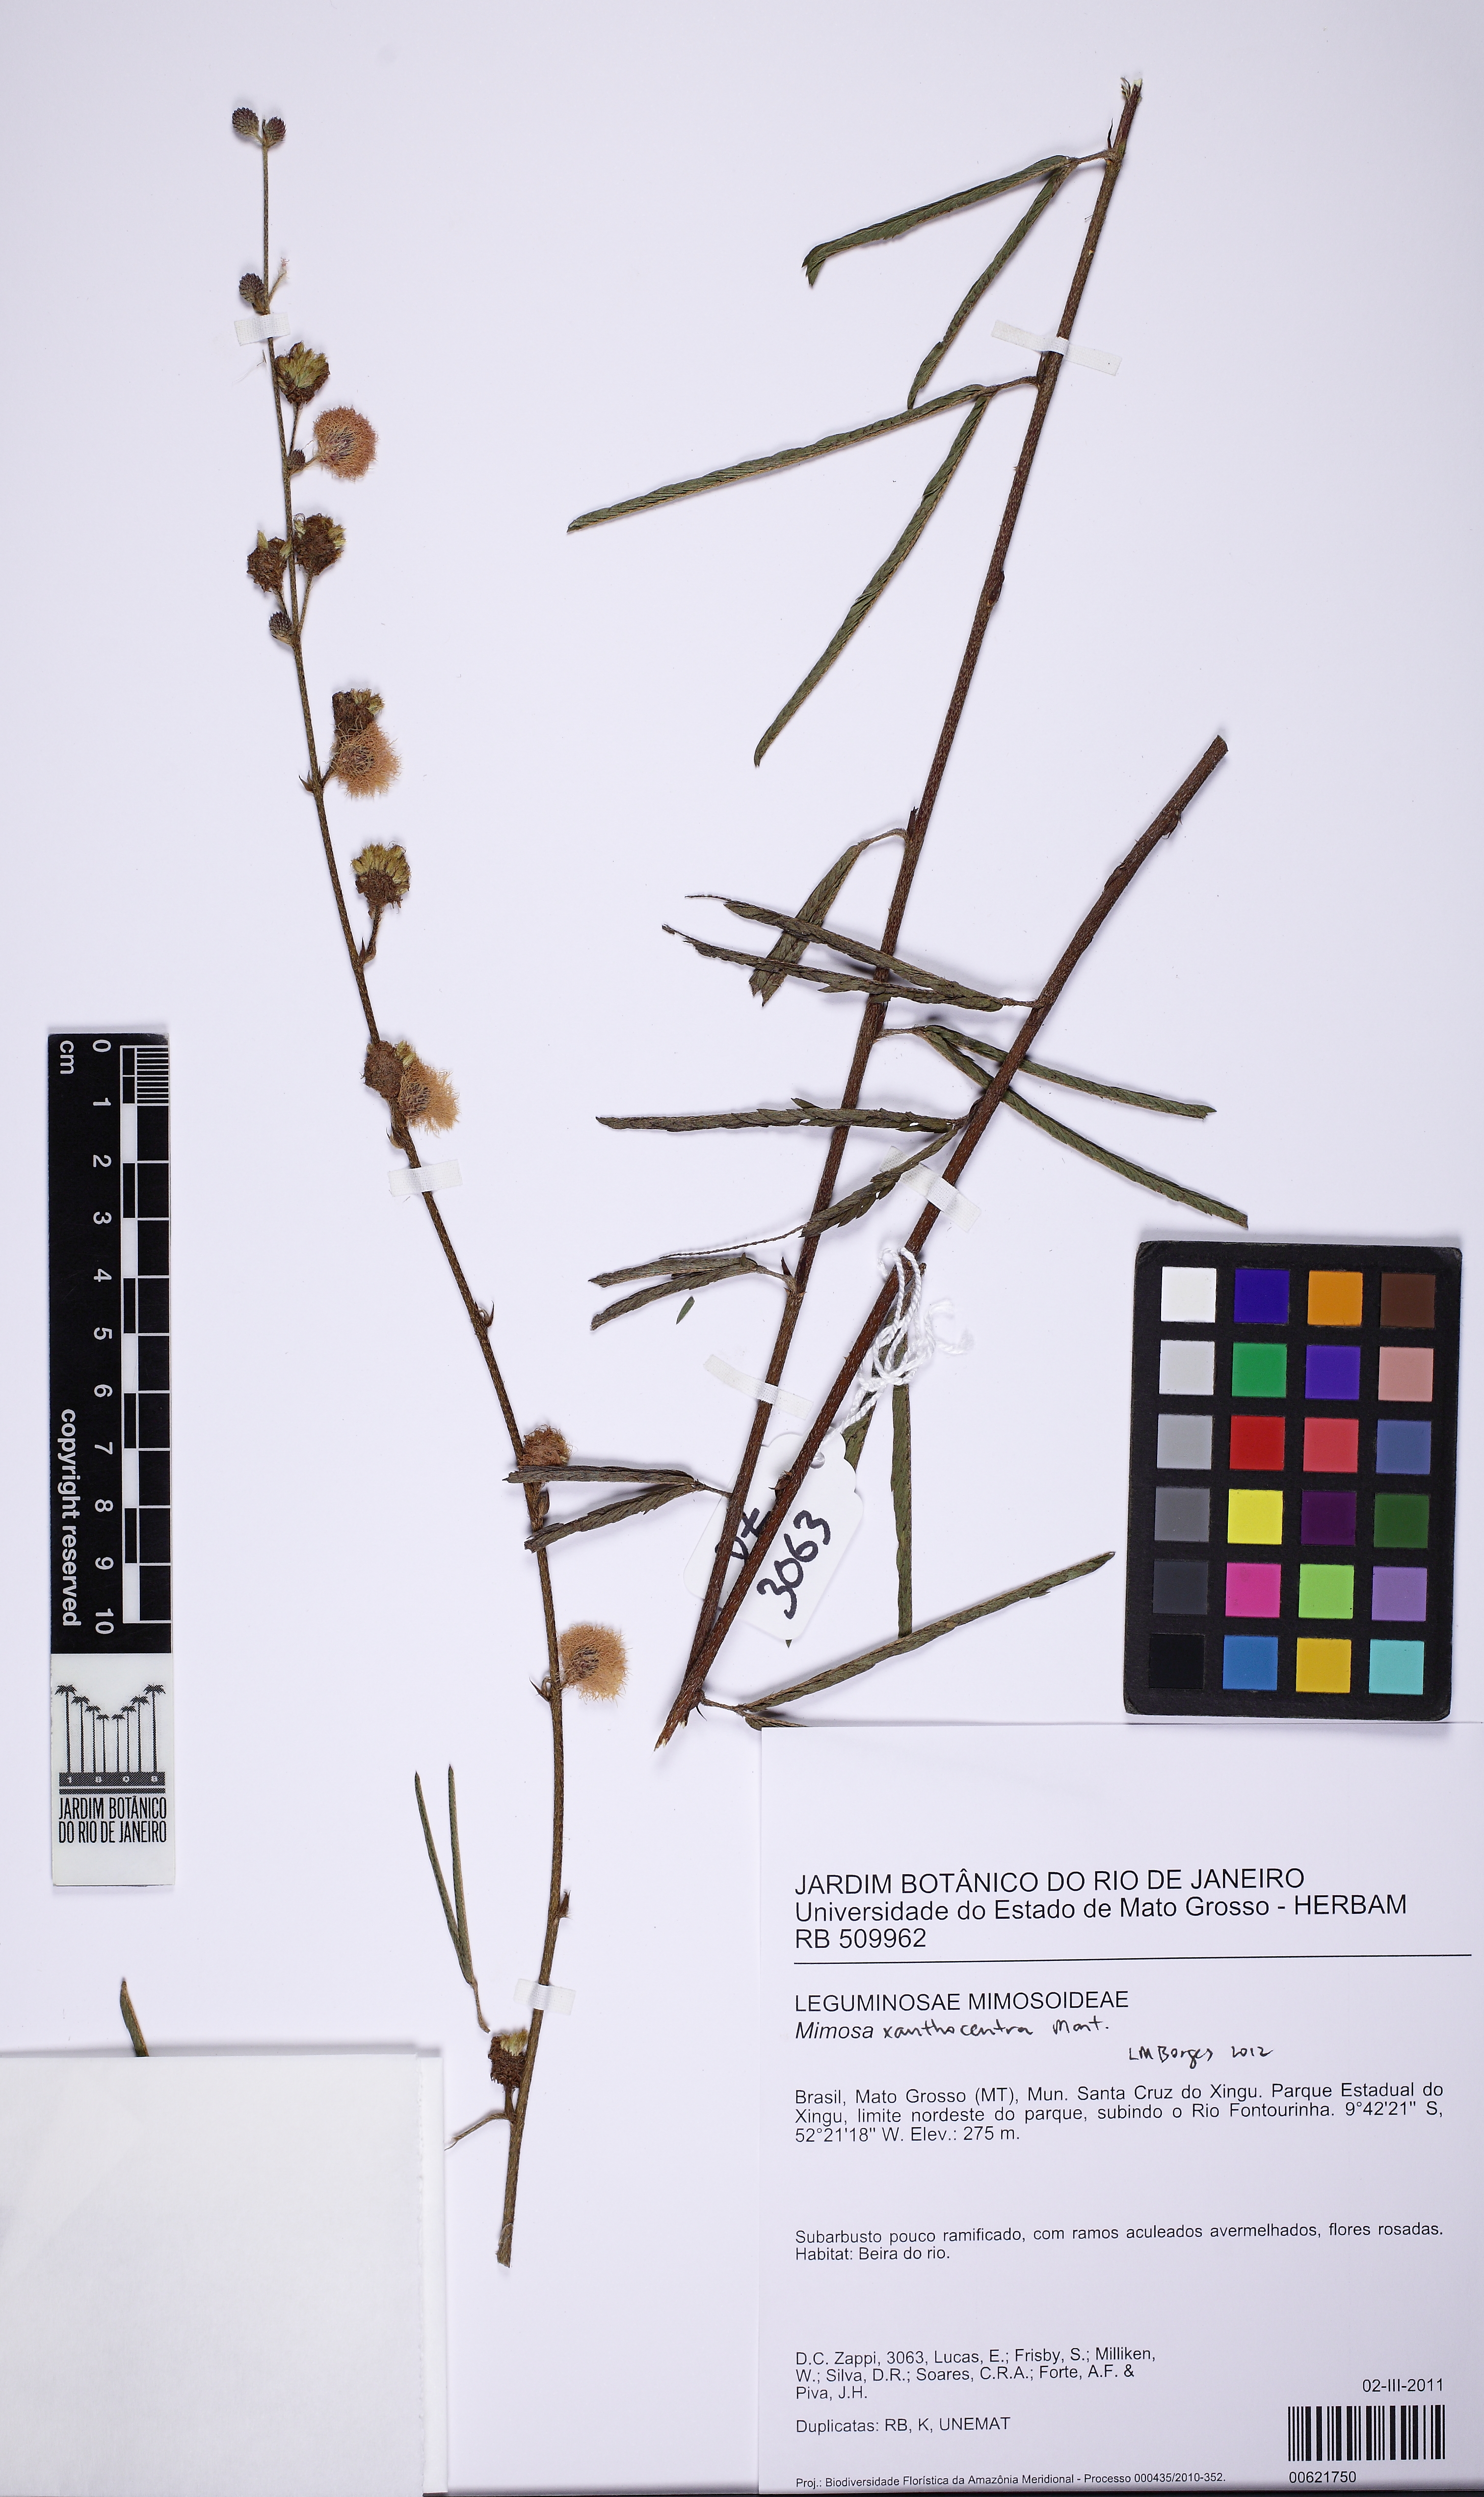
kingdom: Plantae
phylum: Tracheophyta
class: Magnoliopsida
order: Fabales
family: Fabaceae
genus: Mimosa
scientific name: Mimosa xanthocentra
